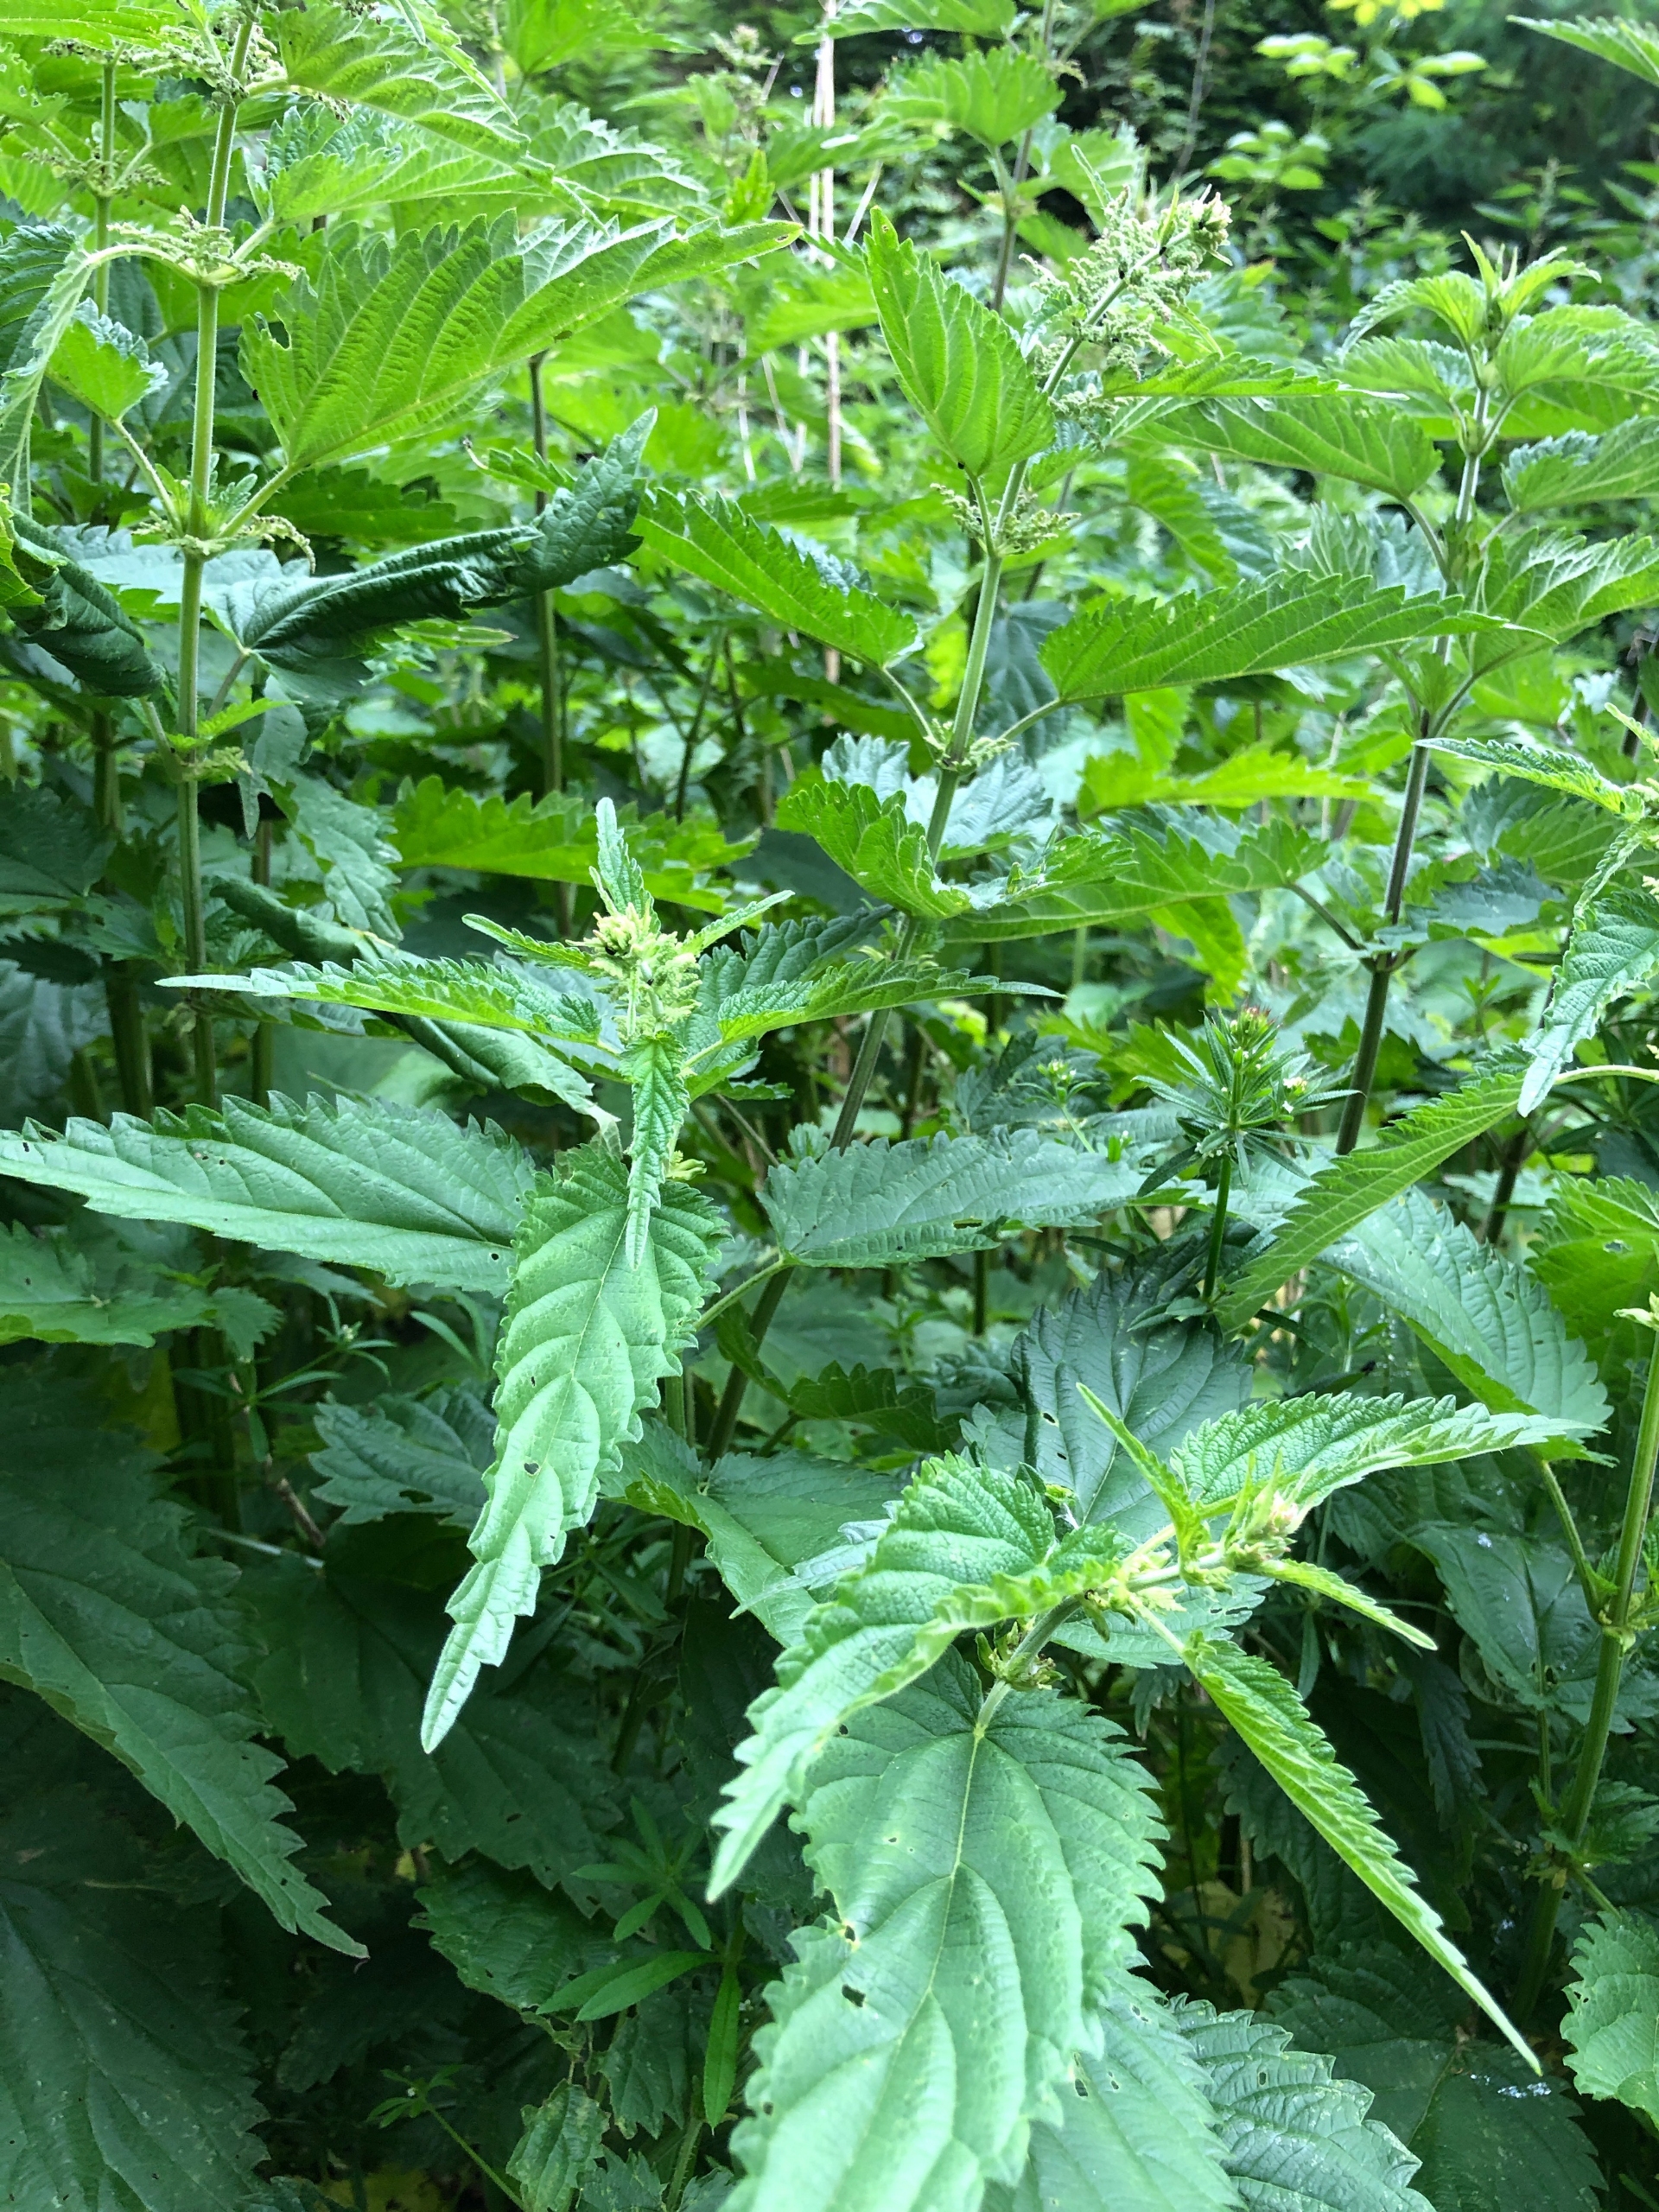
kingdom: Plantae
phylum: Tracheophyta
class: Magnoliopsida
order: Rosales
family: Urticaceae
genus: Urtica
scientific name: Urtica dioica
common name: Stor nælde
